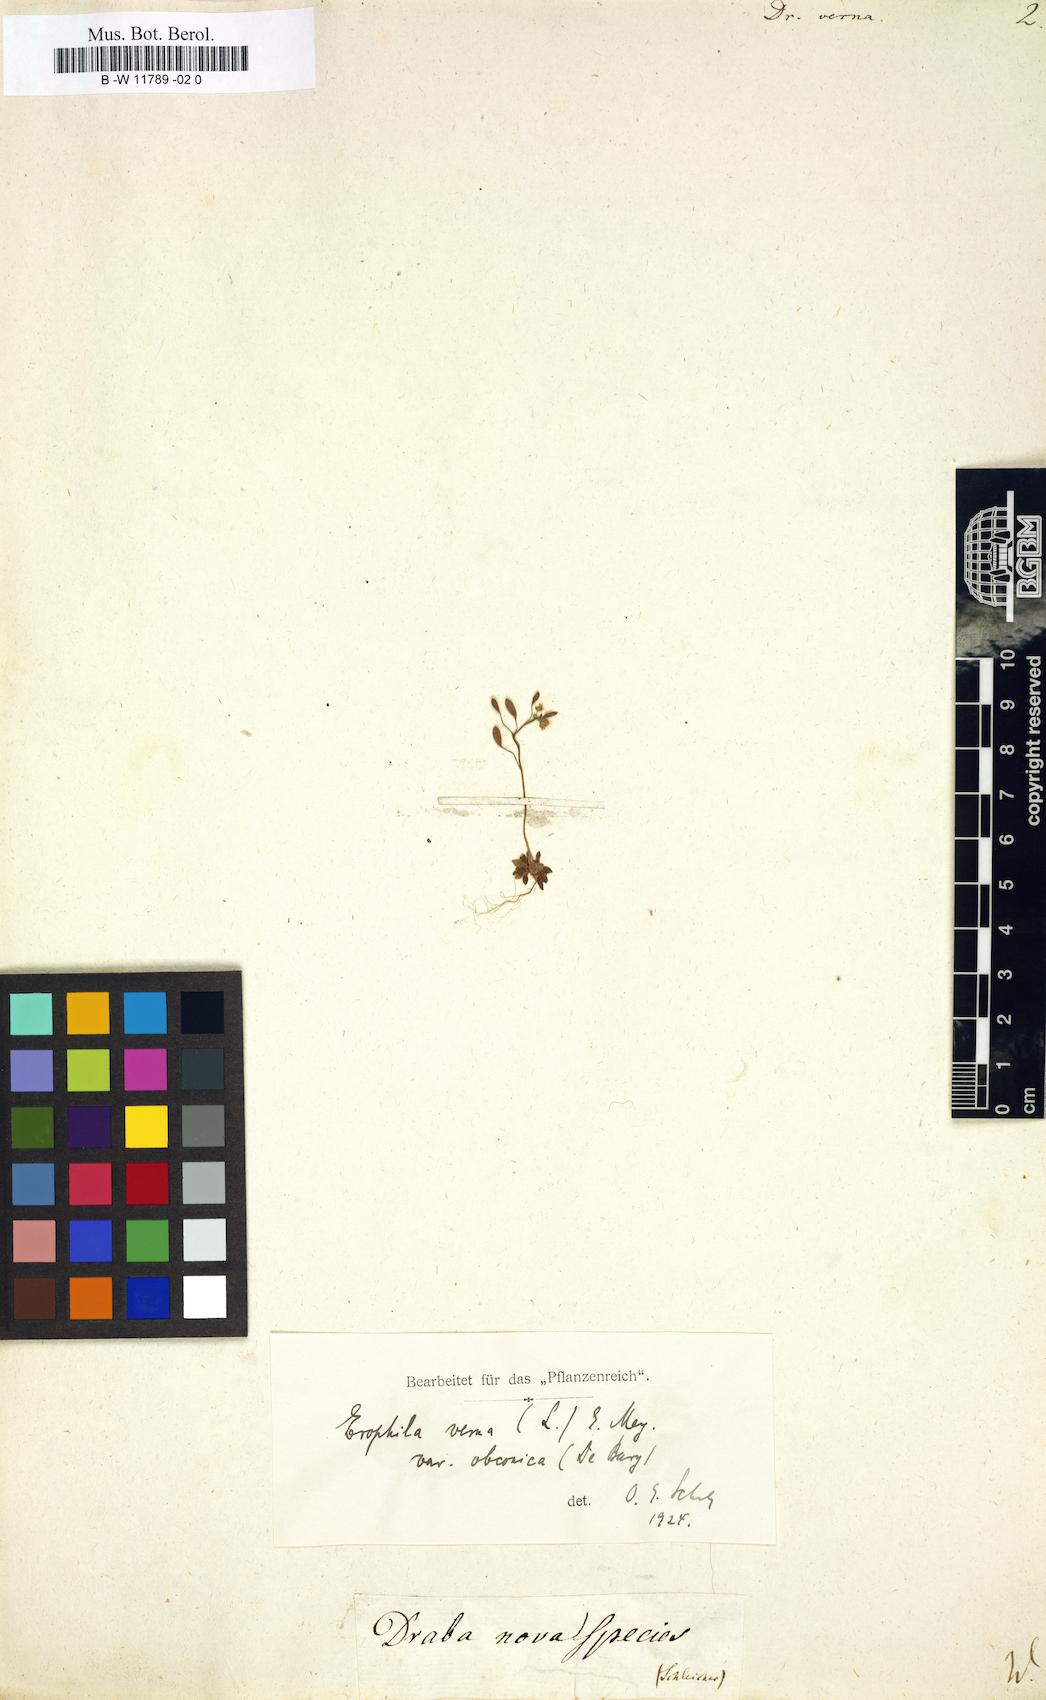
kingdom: Plantae
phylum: Tracheophyta
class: Magnoliopsida
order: Brassicales
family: Brassicaceae
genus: Draba
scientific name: Draba verna
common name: Spring draba
